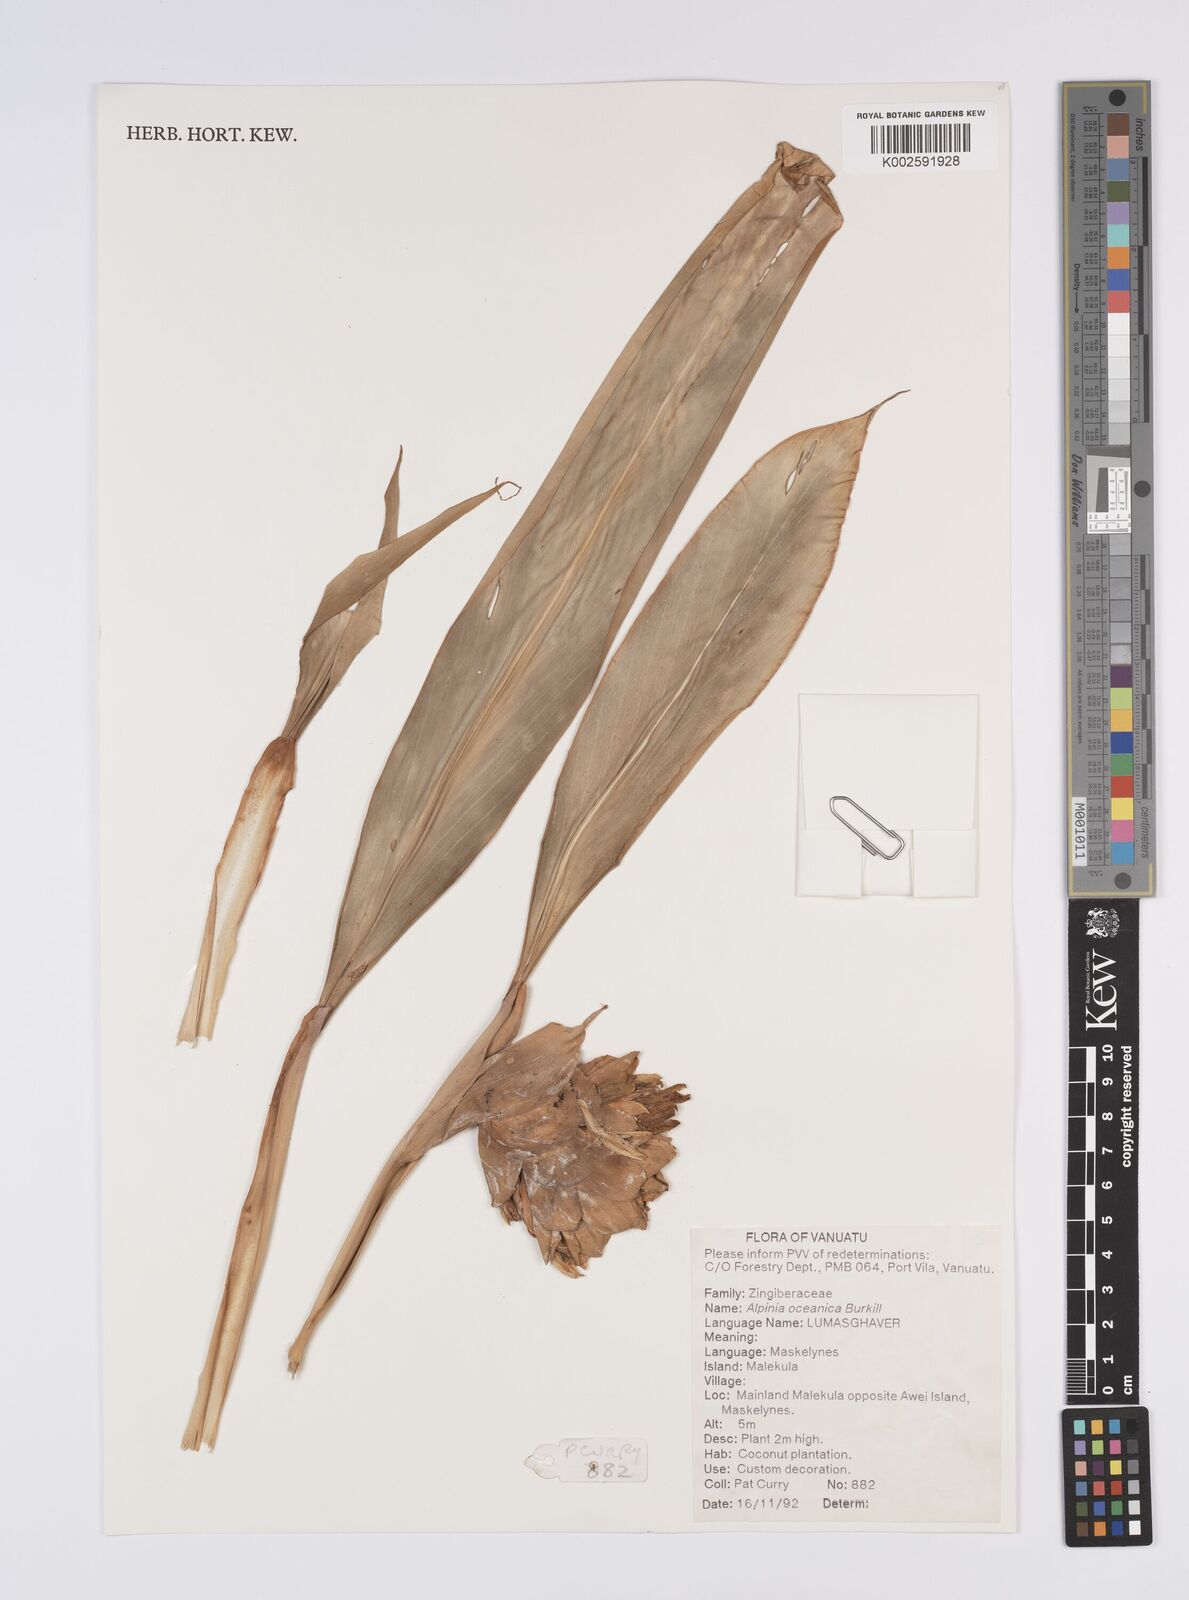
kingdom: Plantae
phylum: Tracheophyta
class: Liliopsida
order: Zingiberales
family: Zingiberaceae
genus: Alpinia
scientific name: Alpinia oceanica
